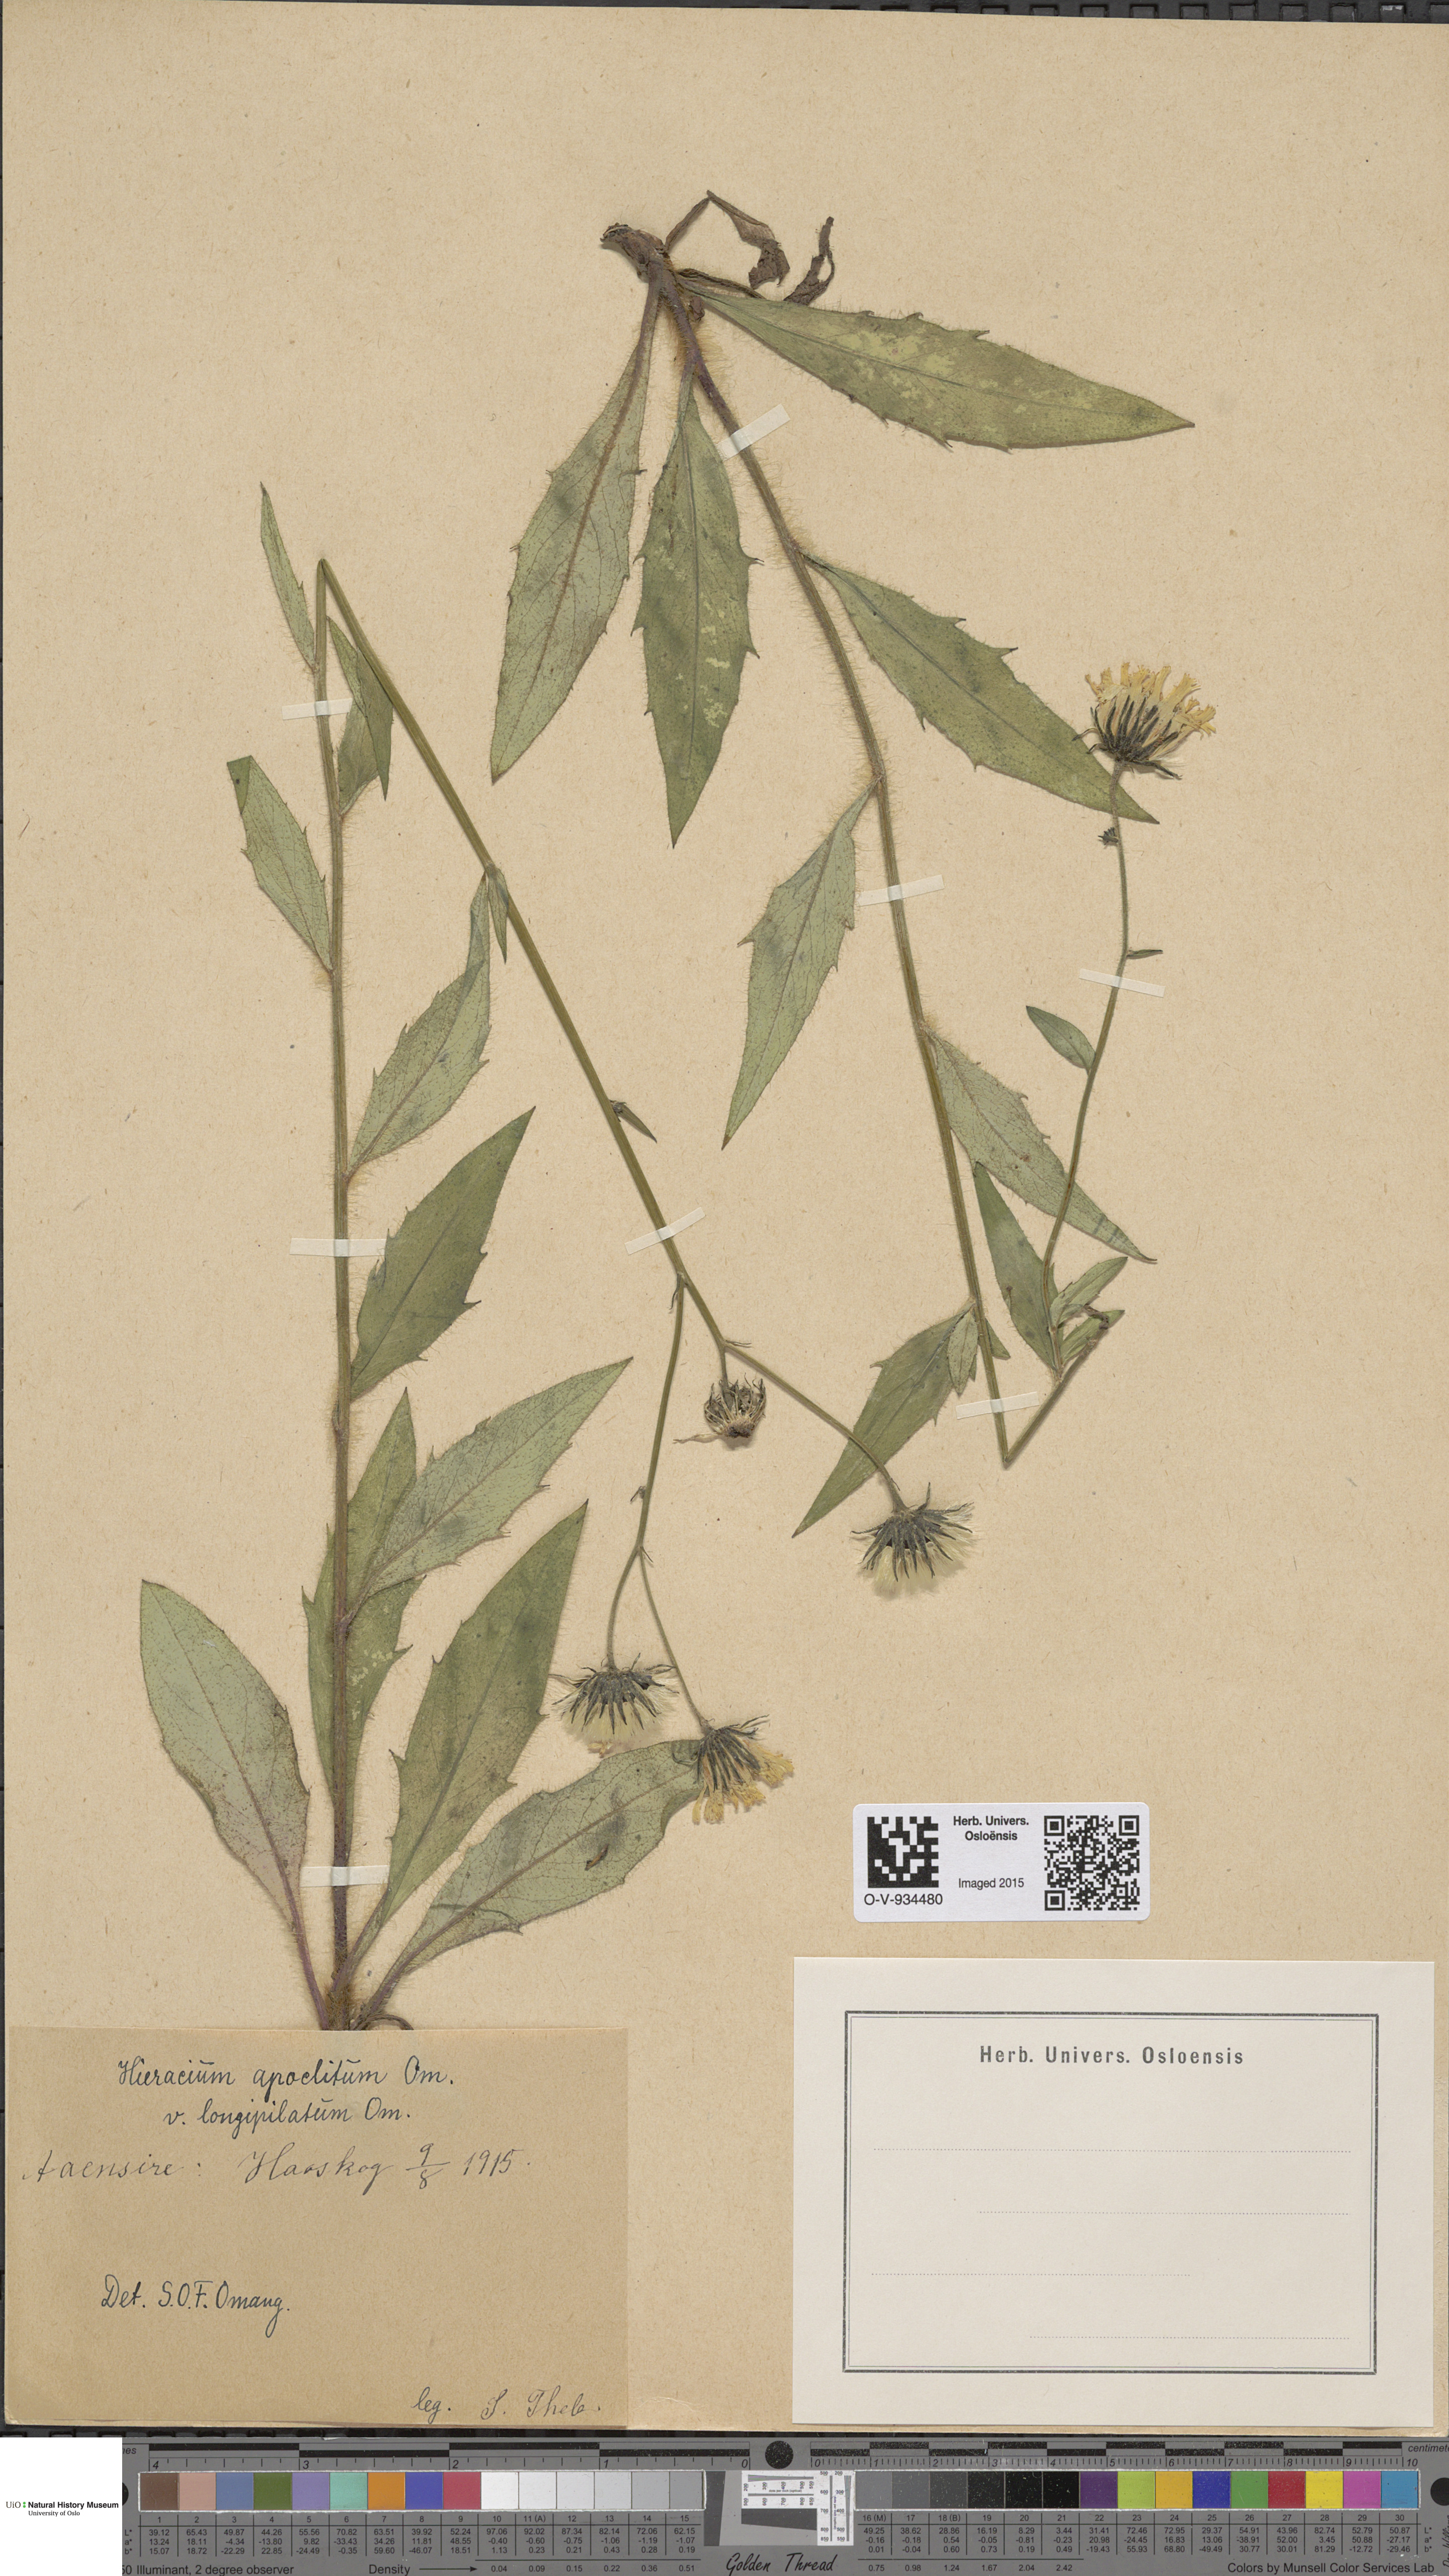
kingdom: Plantae
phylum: Tracheophyta
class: Magnoliopsida
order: Asterales
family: Asteraceae
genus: Hieracium
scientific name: Hieracium
